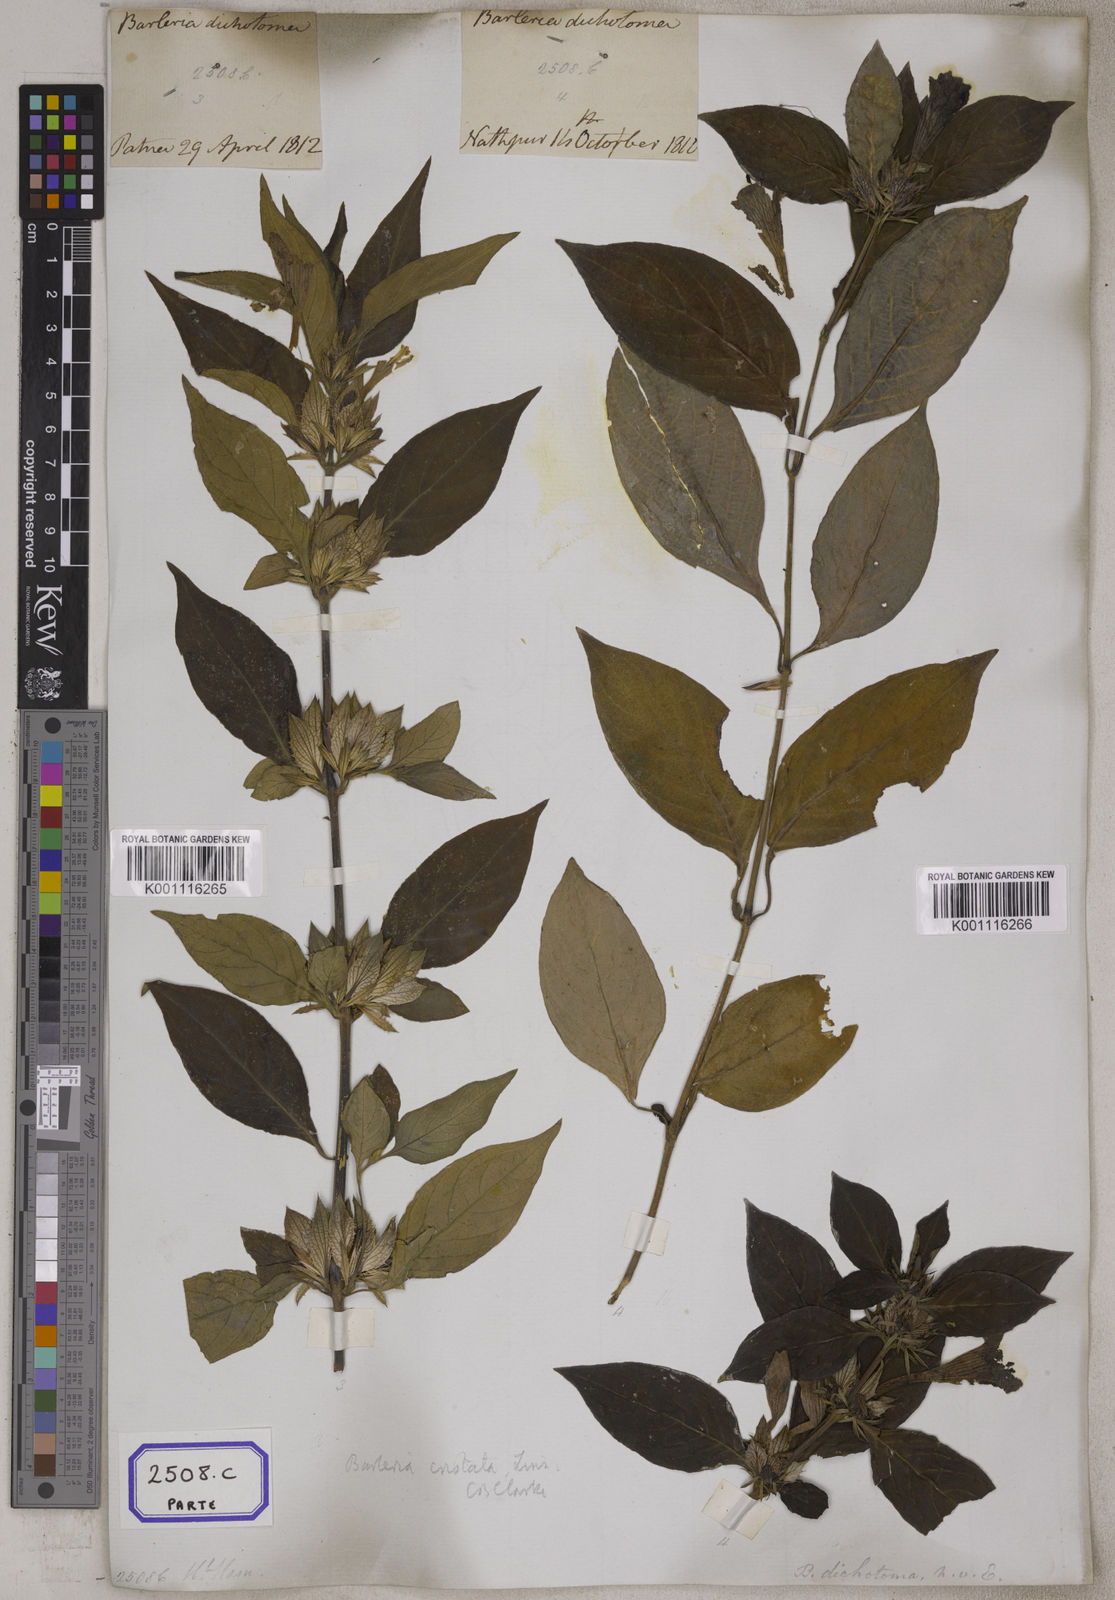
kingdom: Plantae
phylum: Tracheophyta
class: Magnoliopsida
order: Lamiales
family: Acanthaceae
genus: Barleria
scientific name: Barleria cristata
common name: Crested philippine violet
